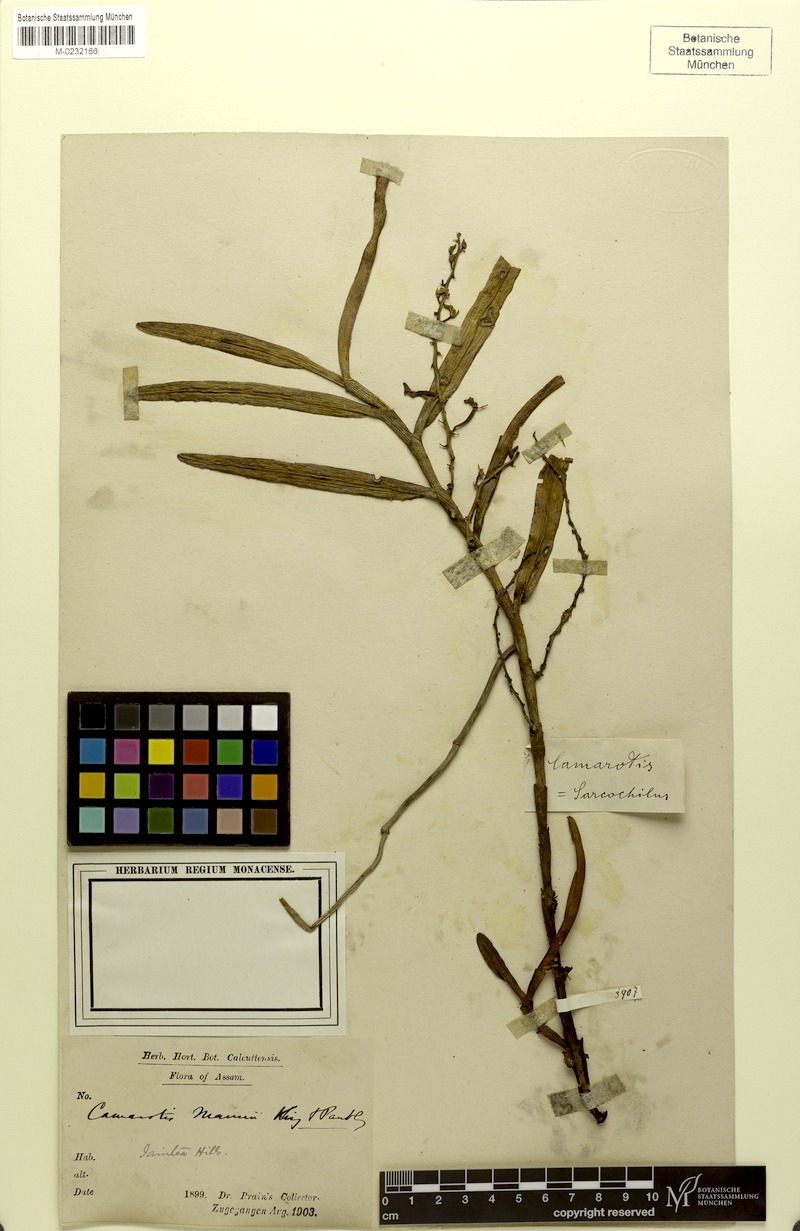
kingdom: Plantae
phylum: Tracheophyta
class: Liliopsida
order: Asparagales
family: Orchidaceae
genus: Micropera
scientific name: Micropera mannii
